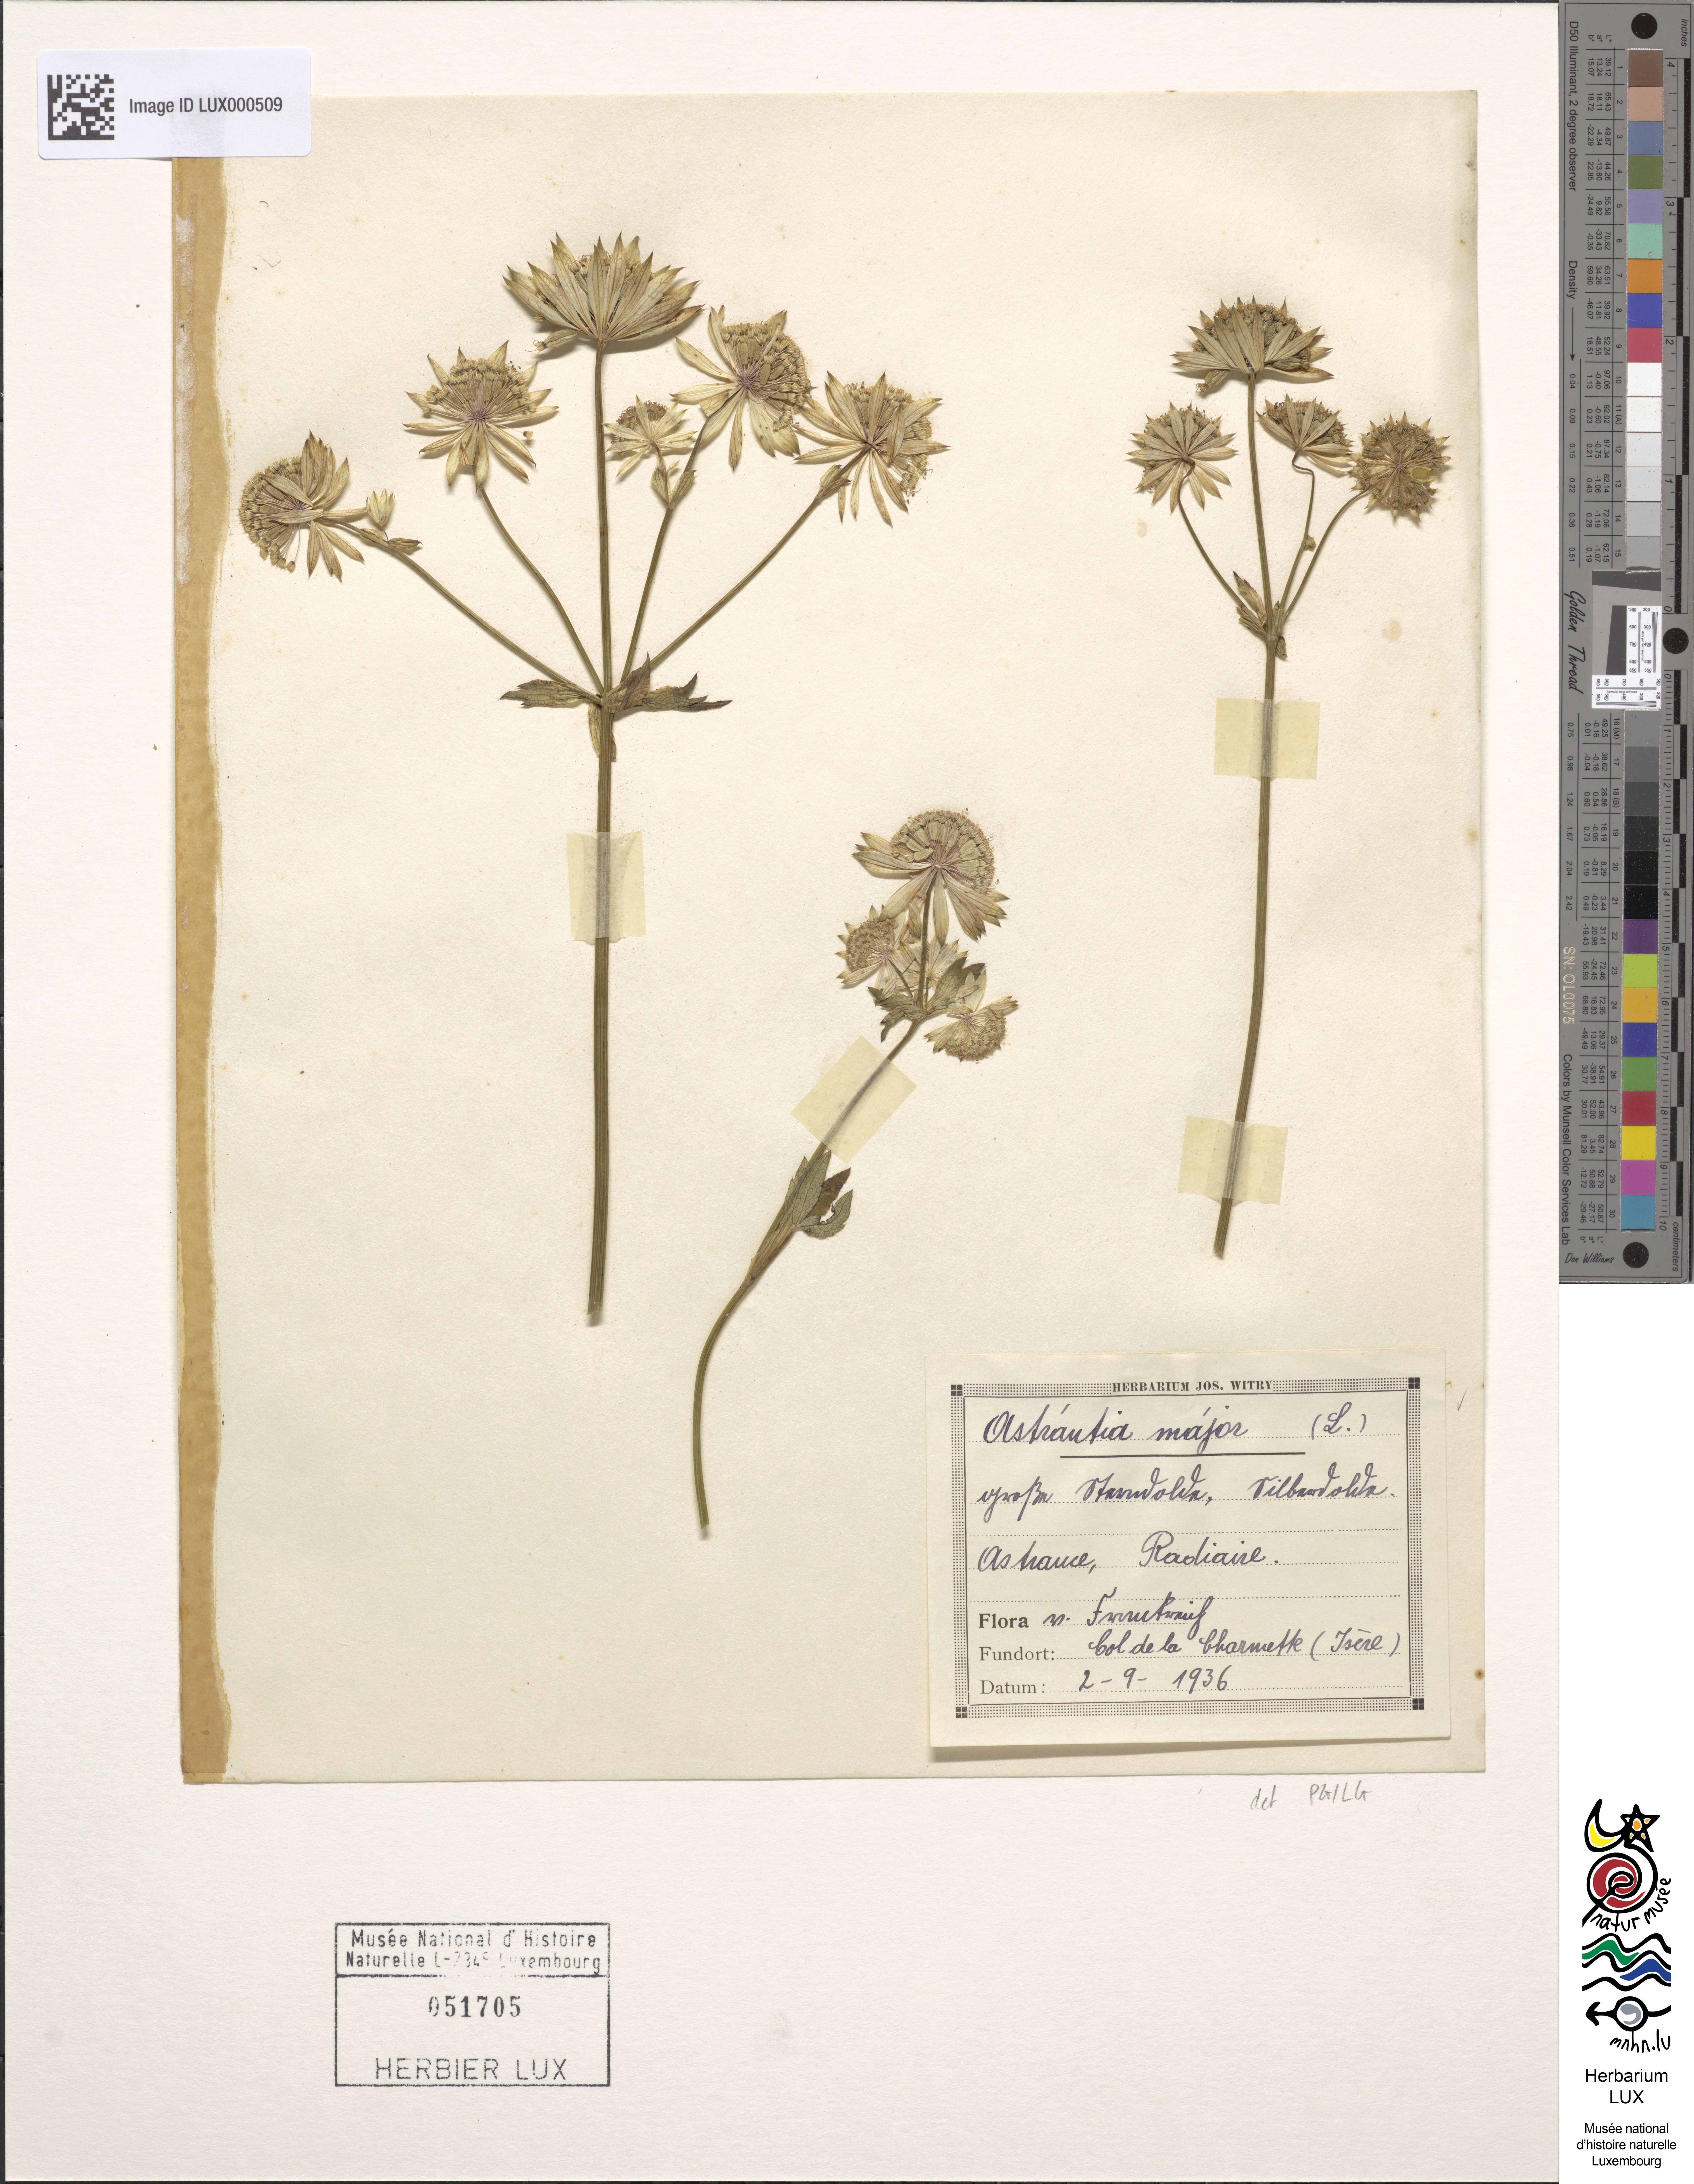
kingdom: Plantae
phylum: Tracheophyta
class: Magnoliopsida
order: Apiales
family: Apiaceae
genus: Astrantia
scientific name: Astrantia major
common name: Greater masterwort
